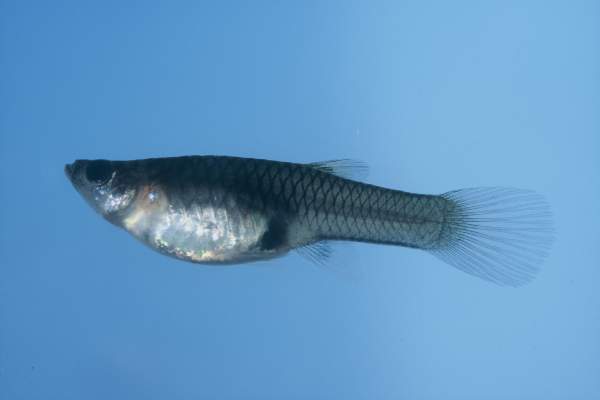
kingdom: Animalia
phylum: Chordata
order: Cyprinodontiformes
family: Poeciliidae
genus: Poecilia
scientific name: Poecilia reticulata
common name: Guppy
